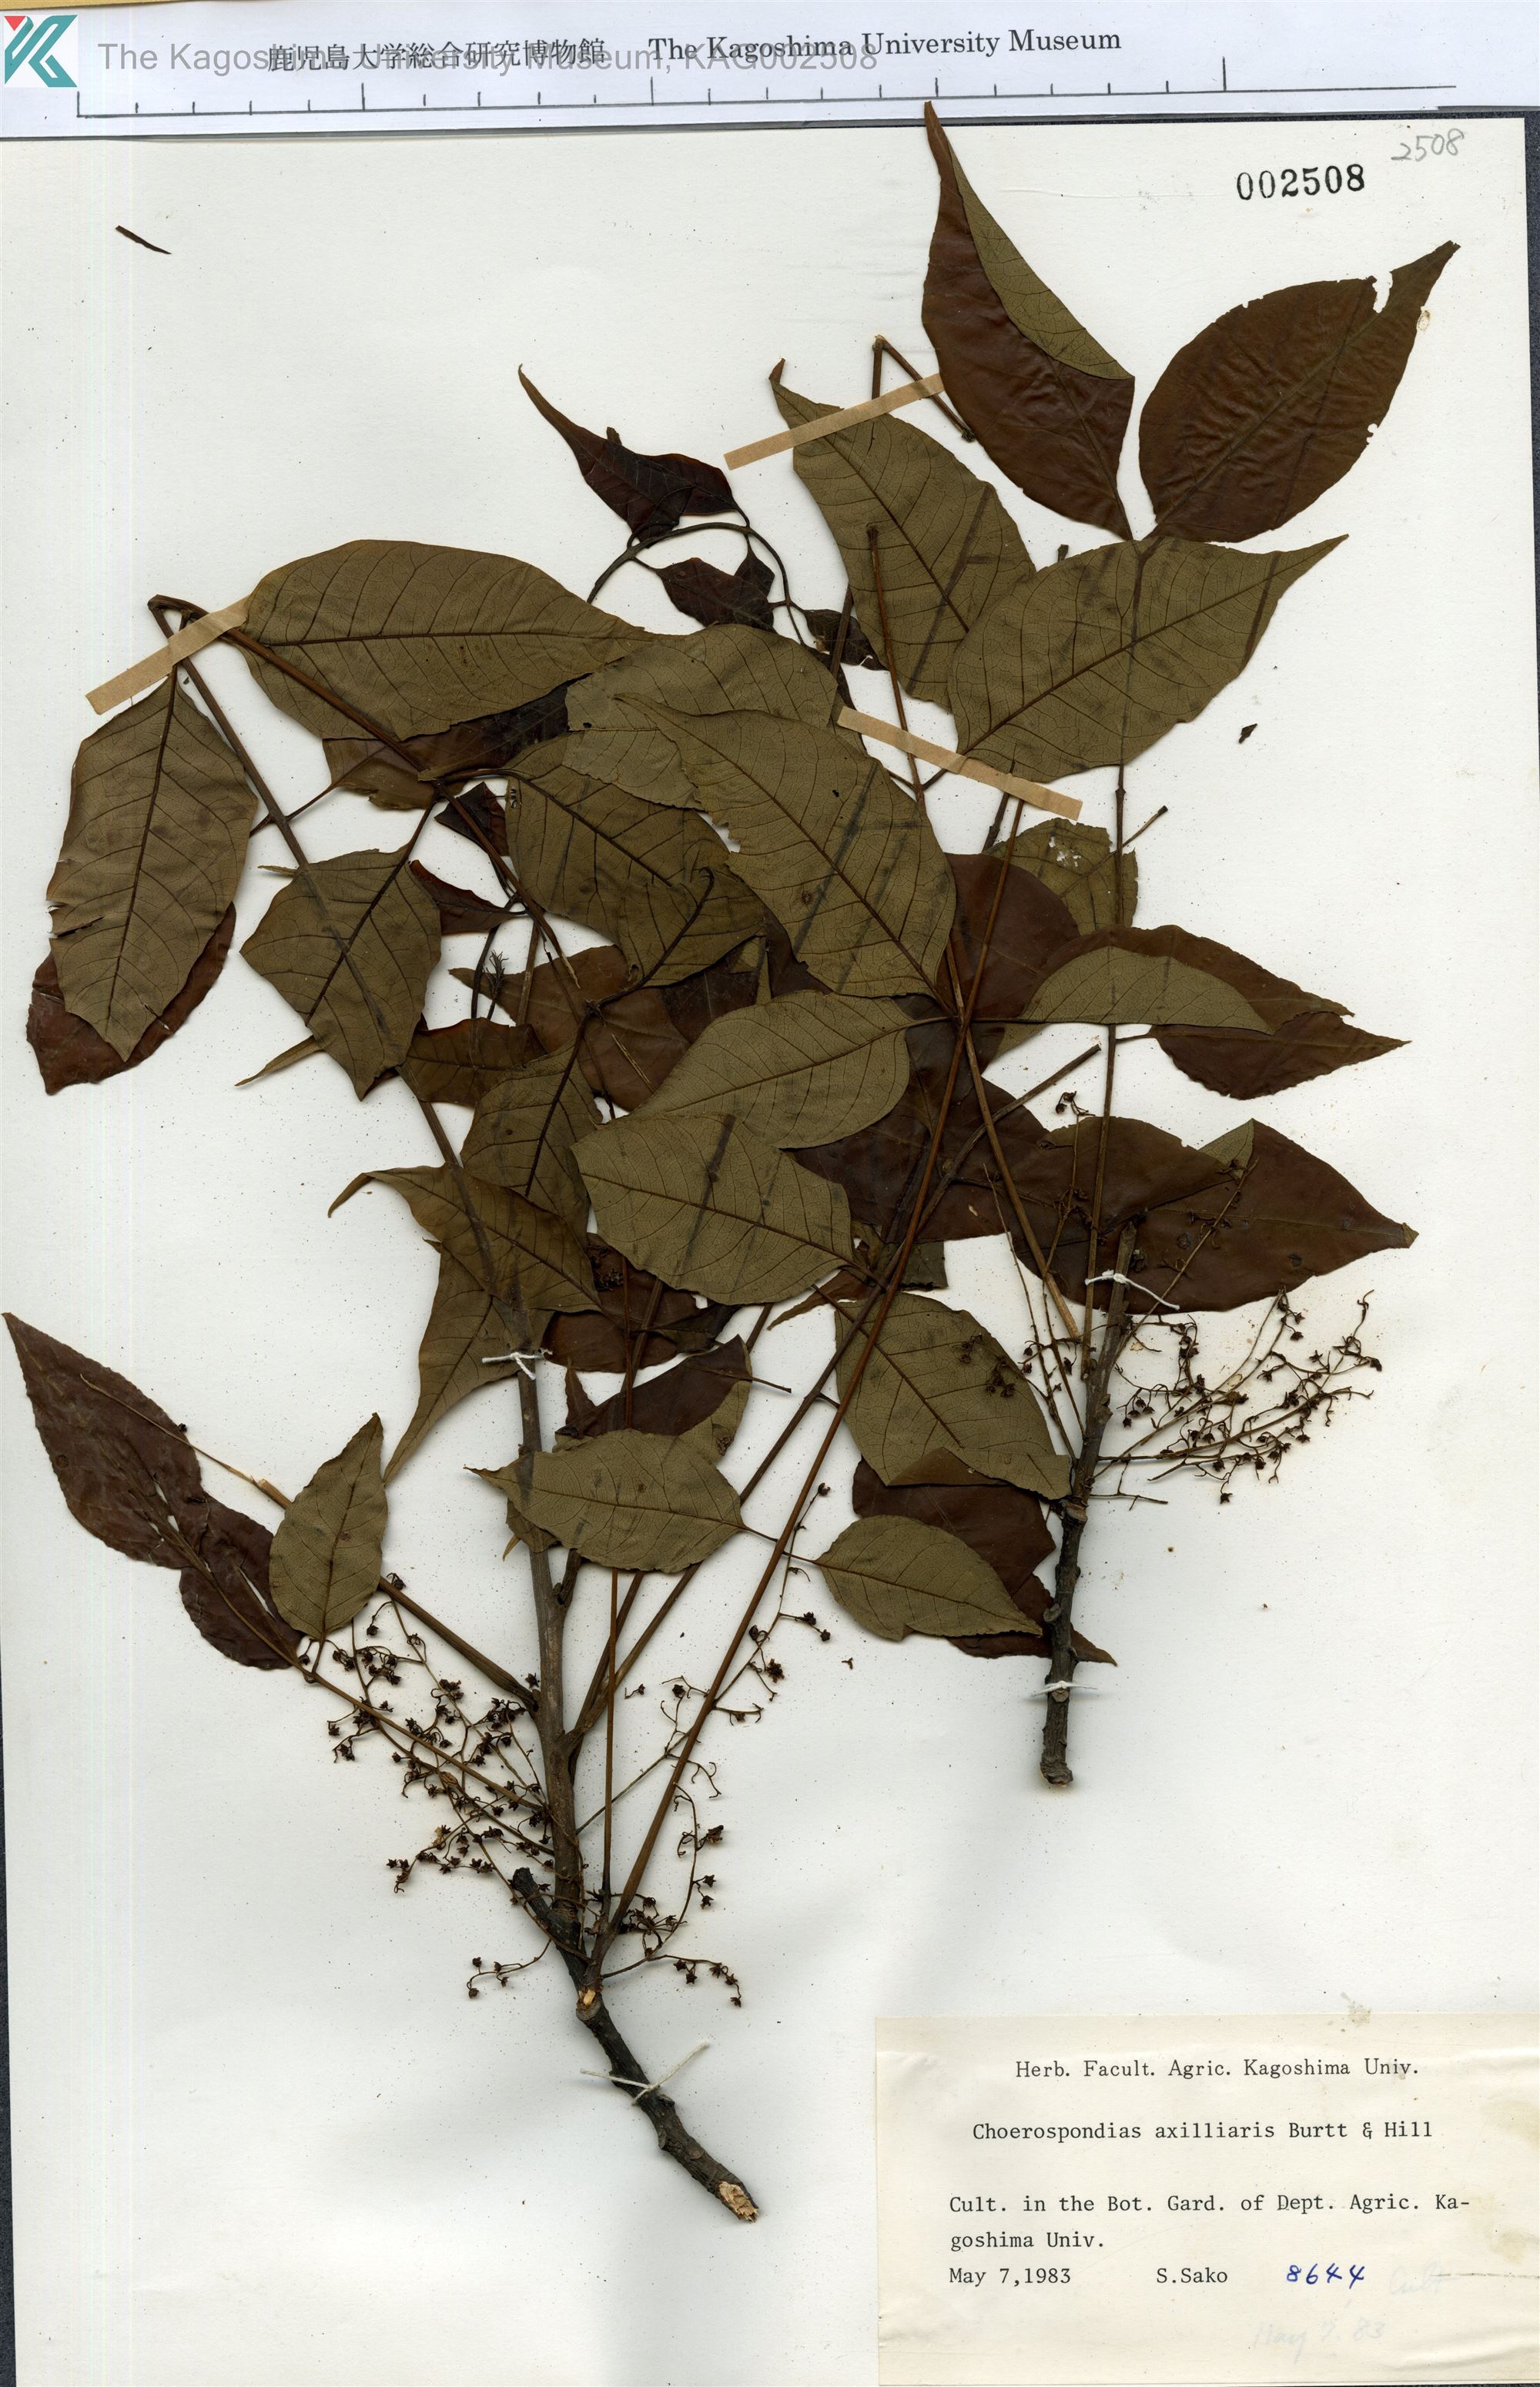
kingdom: Plantae
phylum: Tracheophyta
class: Magnoliopsida
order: Sapindales
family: Anacardiaceae
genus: Choerospondias
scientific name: Choerospondias axillaris
